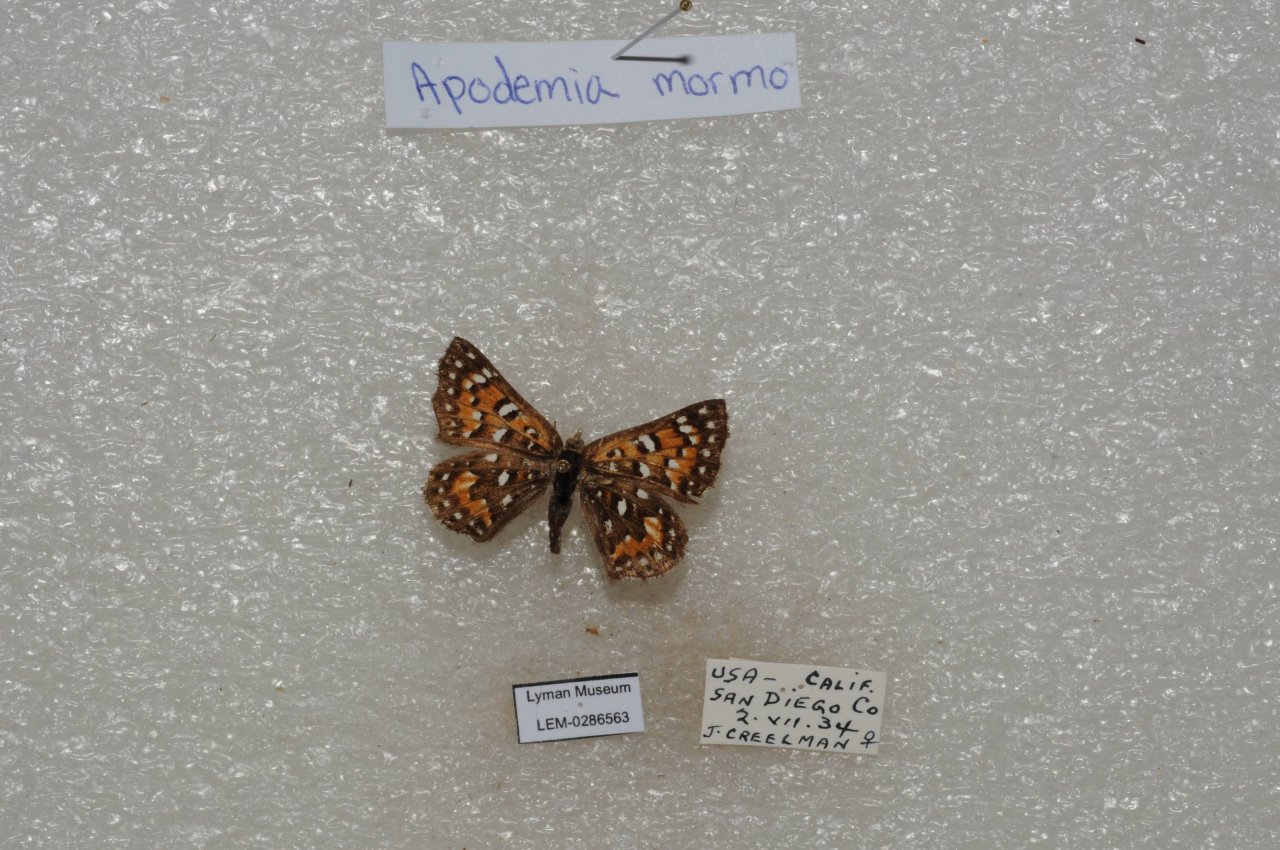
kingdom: Animalia
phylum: Arthropoda
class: Insecta
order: Lepidoptera
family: Riodinidae
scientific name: Riodinidae
